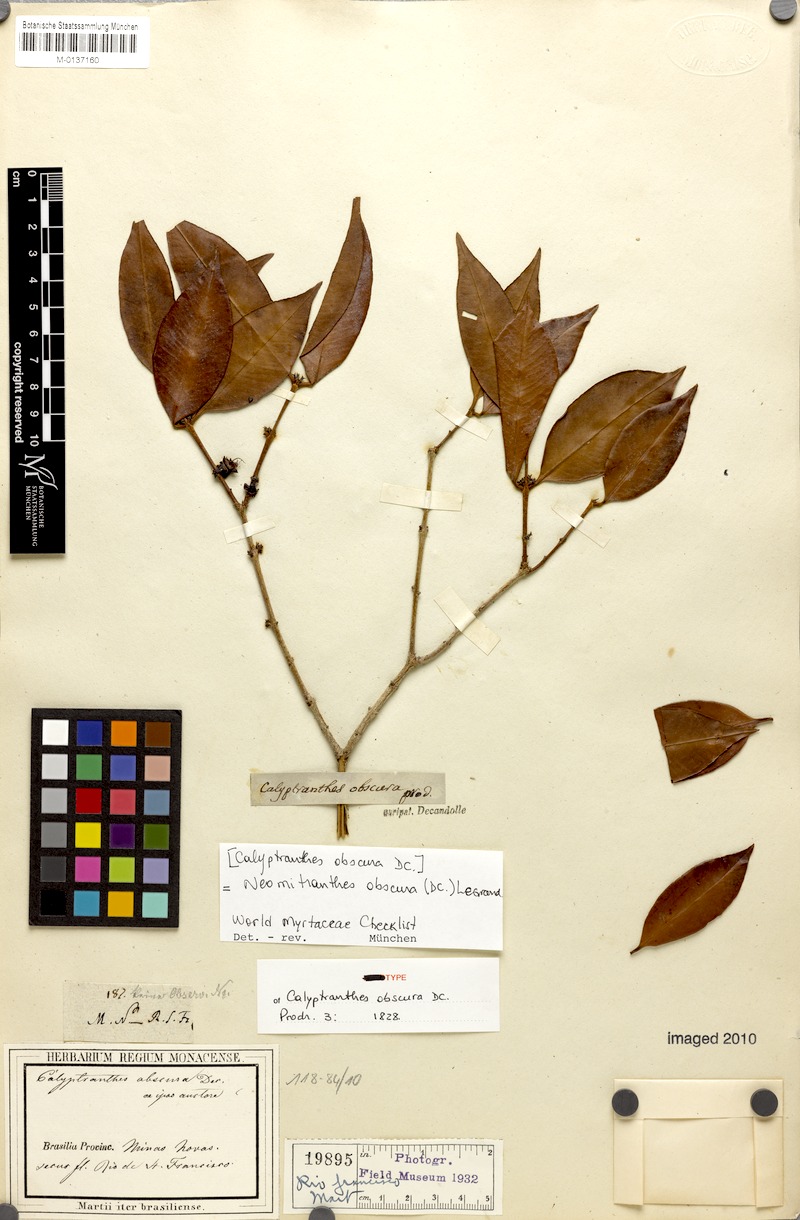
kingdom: Plantae
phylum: Tracheophyta
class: Magnoliopsida
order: Myrtales
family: Myrtaceae
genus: Neomitranthes
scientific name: Neomitranthes obscura
